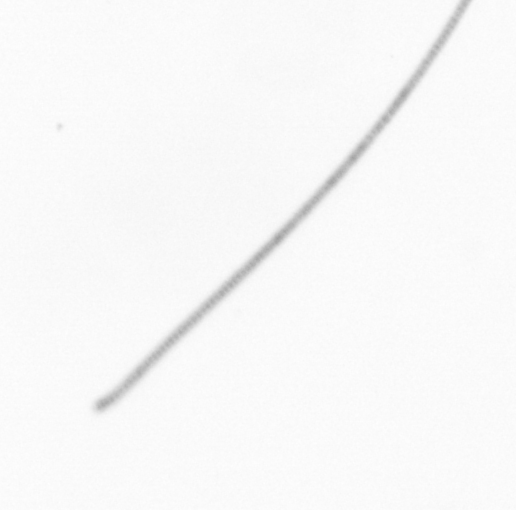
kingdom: Chromista
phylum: Ochrophyta
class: Bacillariophyceae
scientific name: Bacillariophyceae
